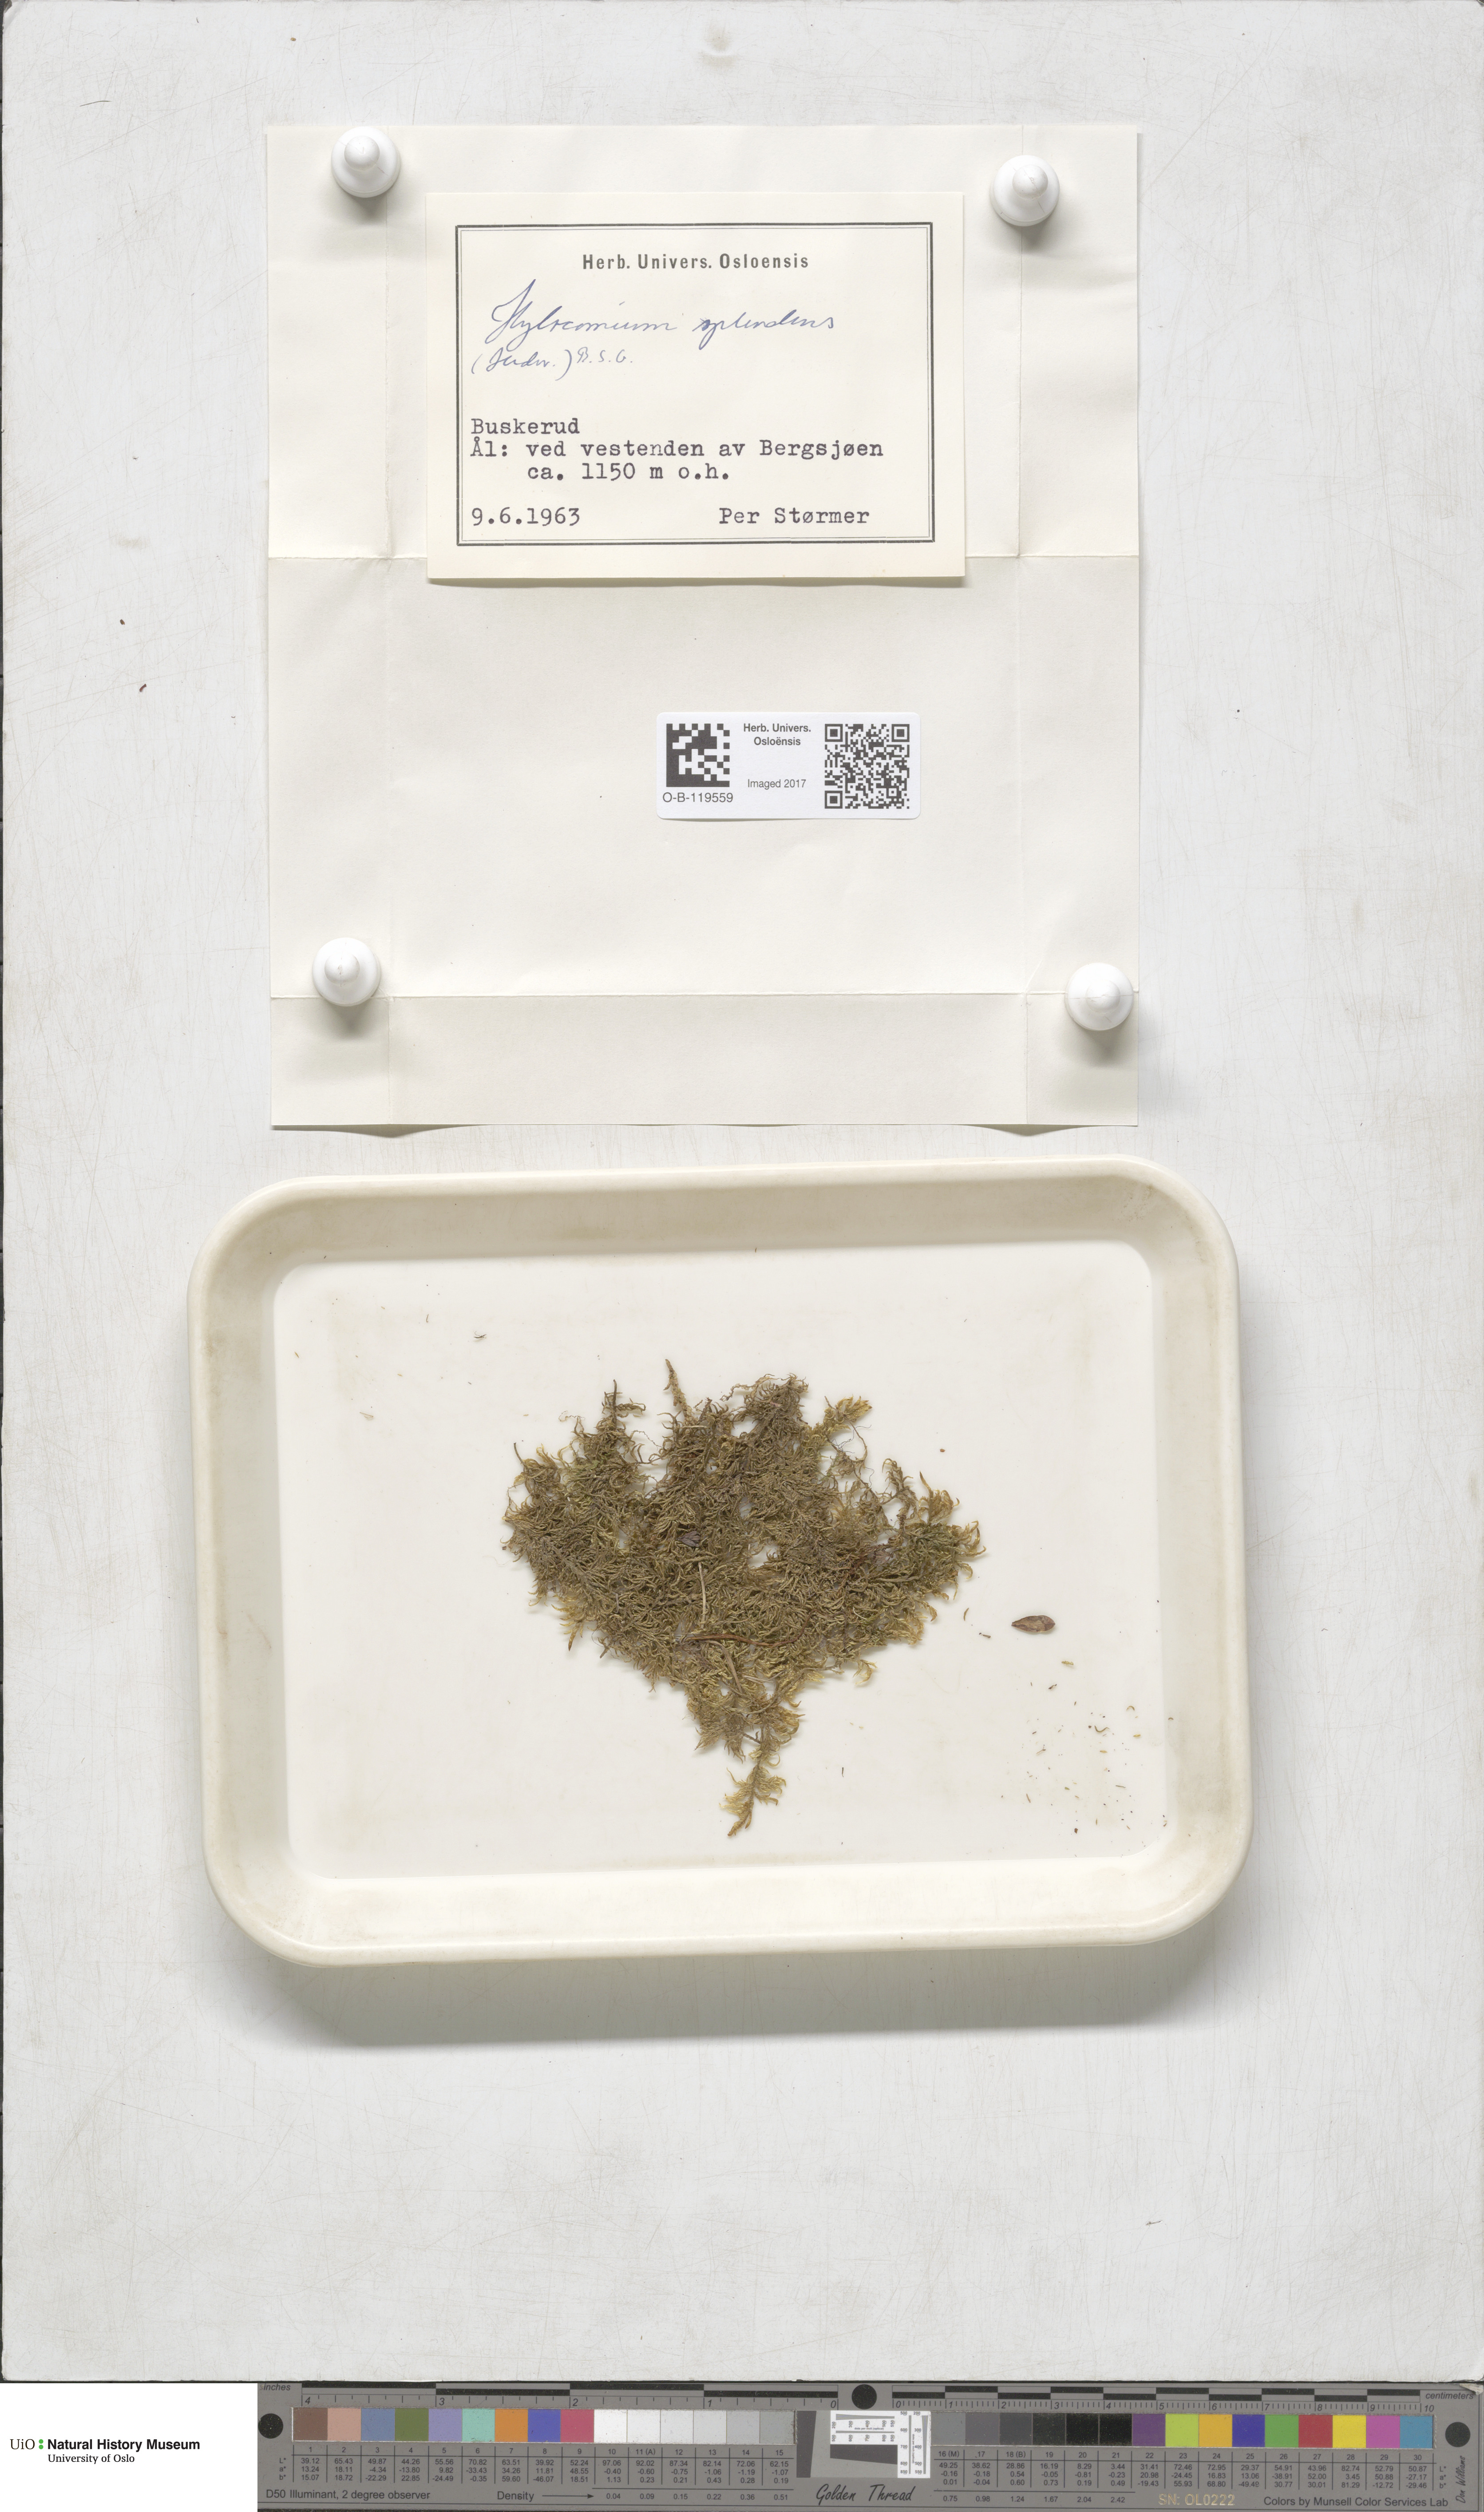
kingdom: Plantae
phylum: Bryophyta
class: Bryopsida
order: Hypnales
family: Hylocomiaceae
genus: Hylocomium
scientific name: Hylocomium splendens
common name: Stairstep moss
